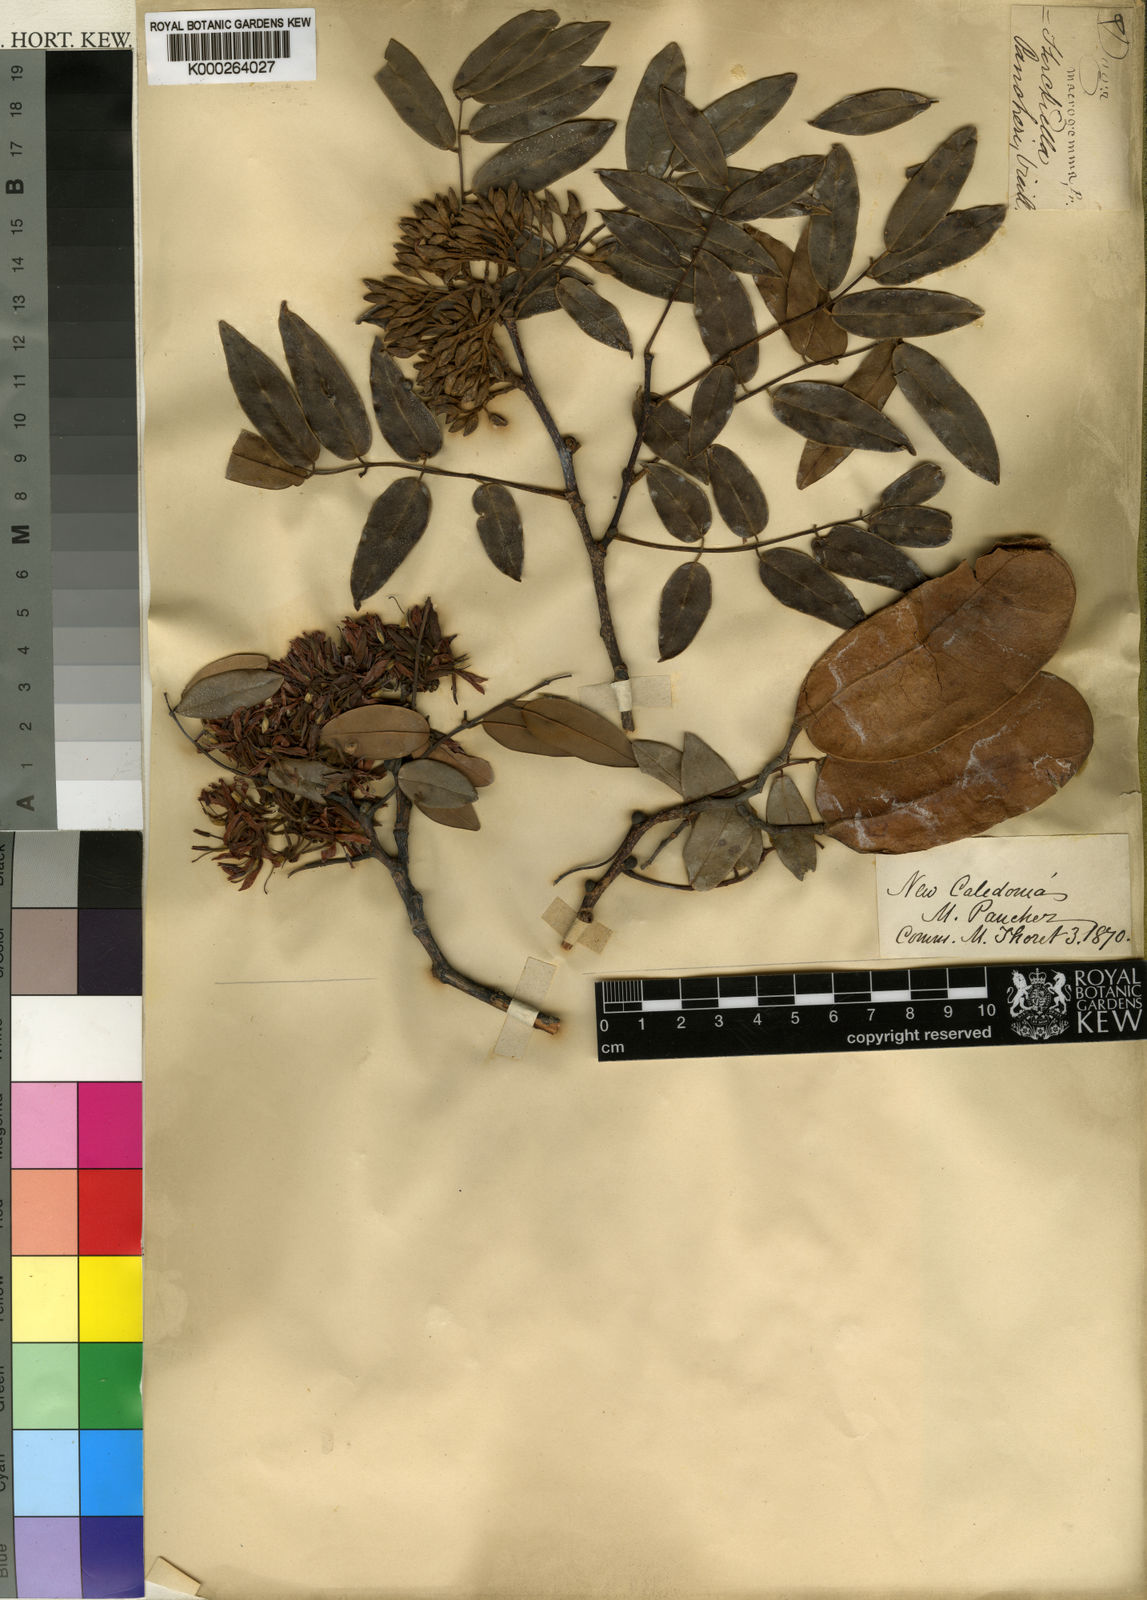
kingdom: Plantae
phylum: Tracheophyta
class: Magnoliopsida
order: Fabales
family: Fabaceae
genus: Storckiella
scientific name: Storckiella
